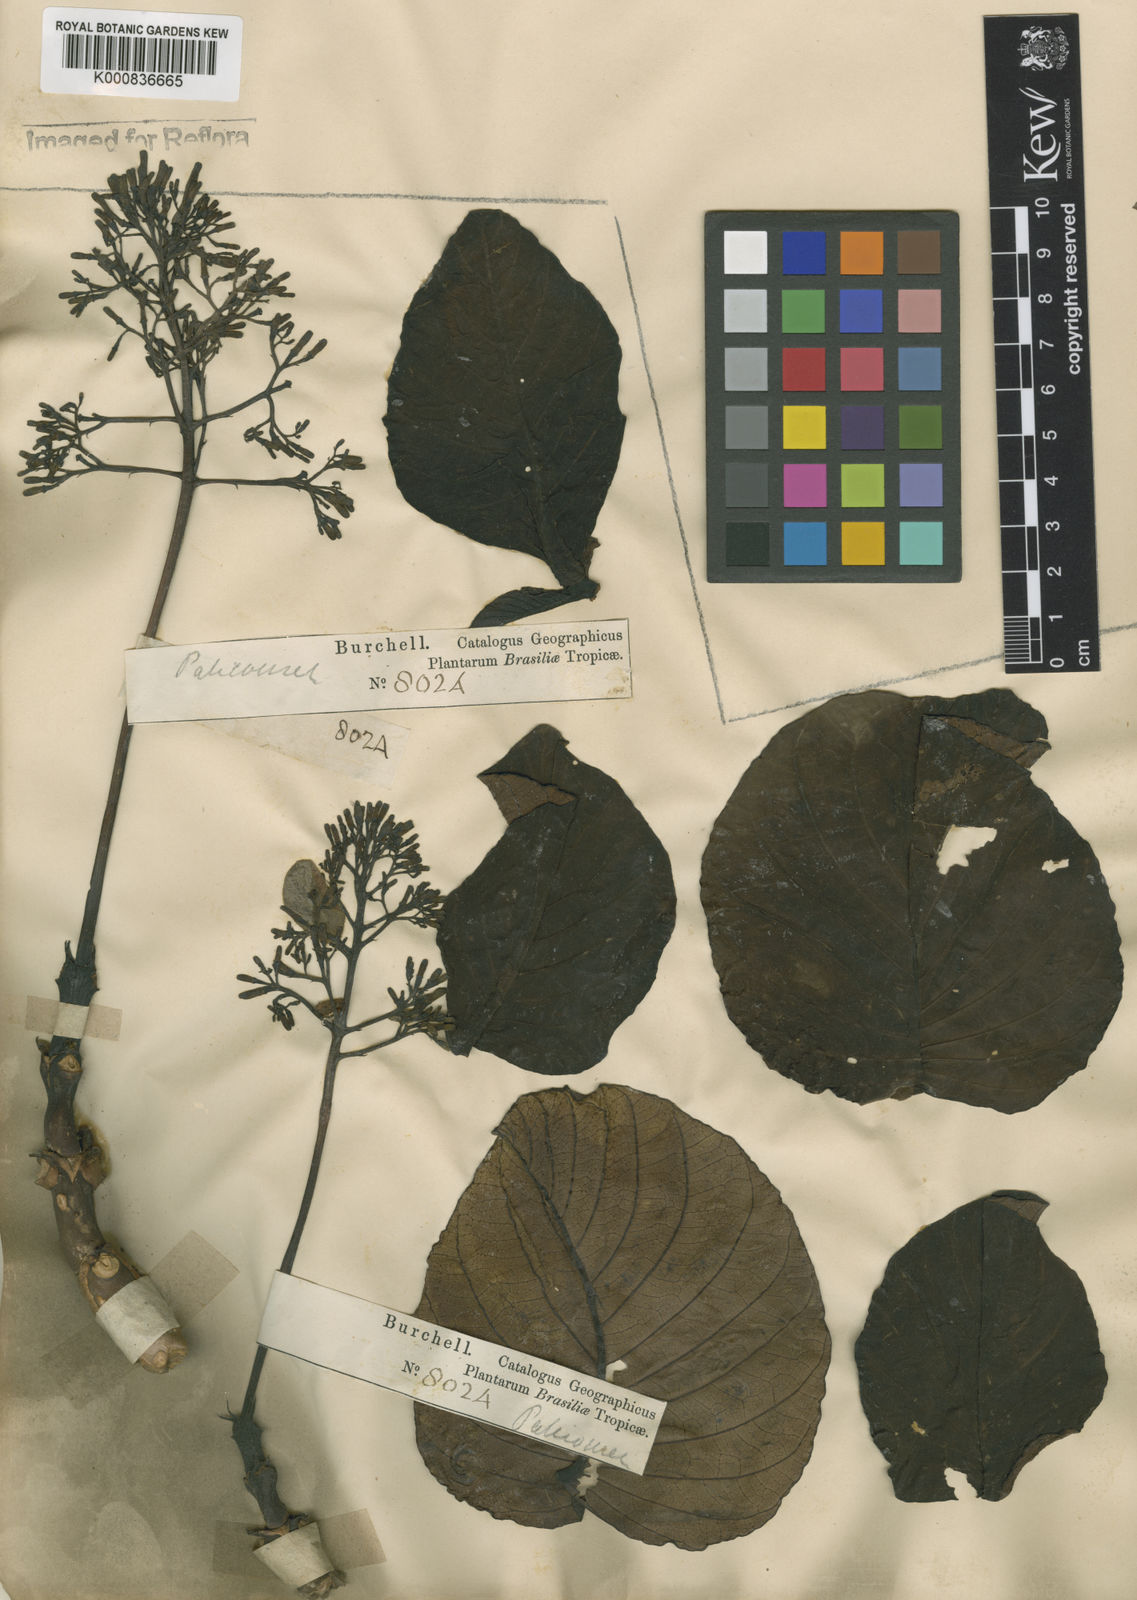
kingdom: Plantae
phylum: Tracheophyta
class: Magnoliopsida
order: Gentianales
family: Rubiaceae
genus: Palicourea
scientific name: Palicourea rigida
